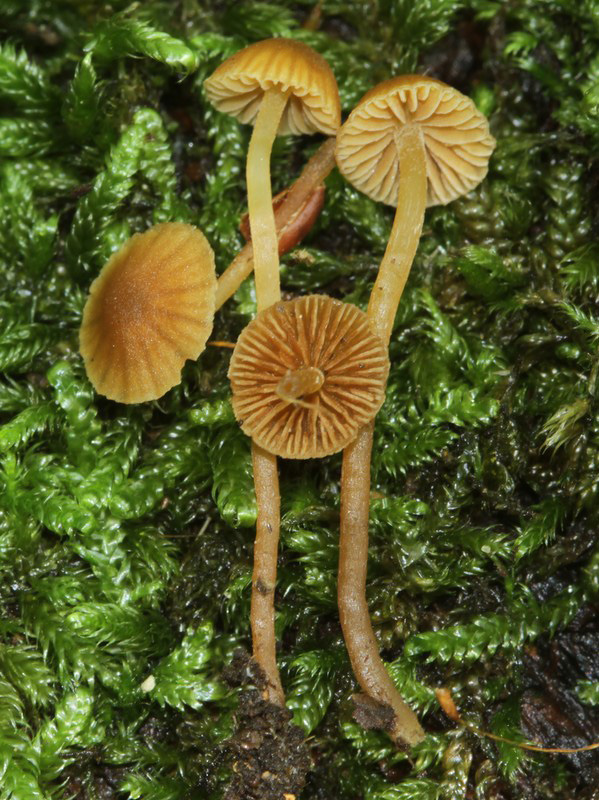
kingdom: Fungi
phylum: Basidiomycota
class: Agaricomycetes
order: Agaricales
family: Hymenogastraceae
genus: Galerina
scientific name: Galerina hypnorum
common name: mos-hjelmhat
